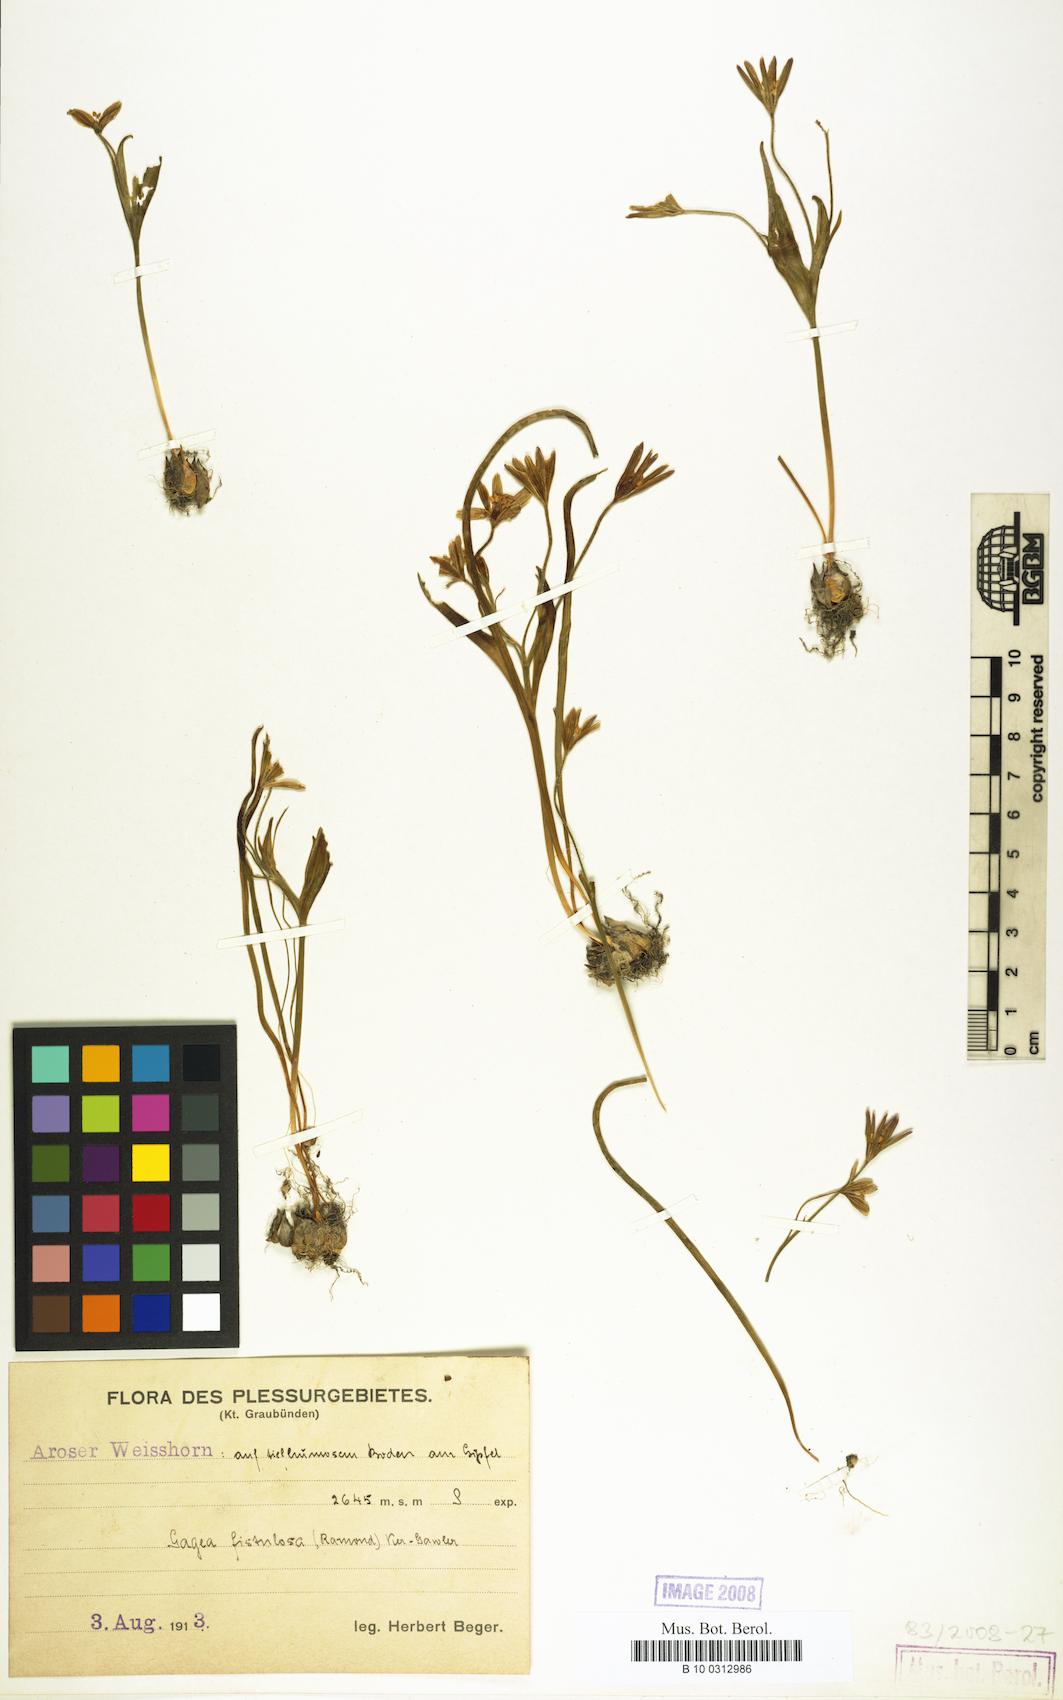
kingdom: Plantae
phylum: Tracheophyta
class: Liliopsida
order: Liliales
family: Liliaceae
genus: Gagea
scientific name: Gagea
